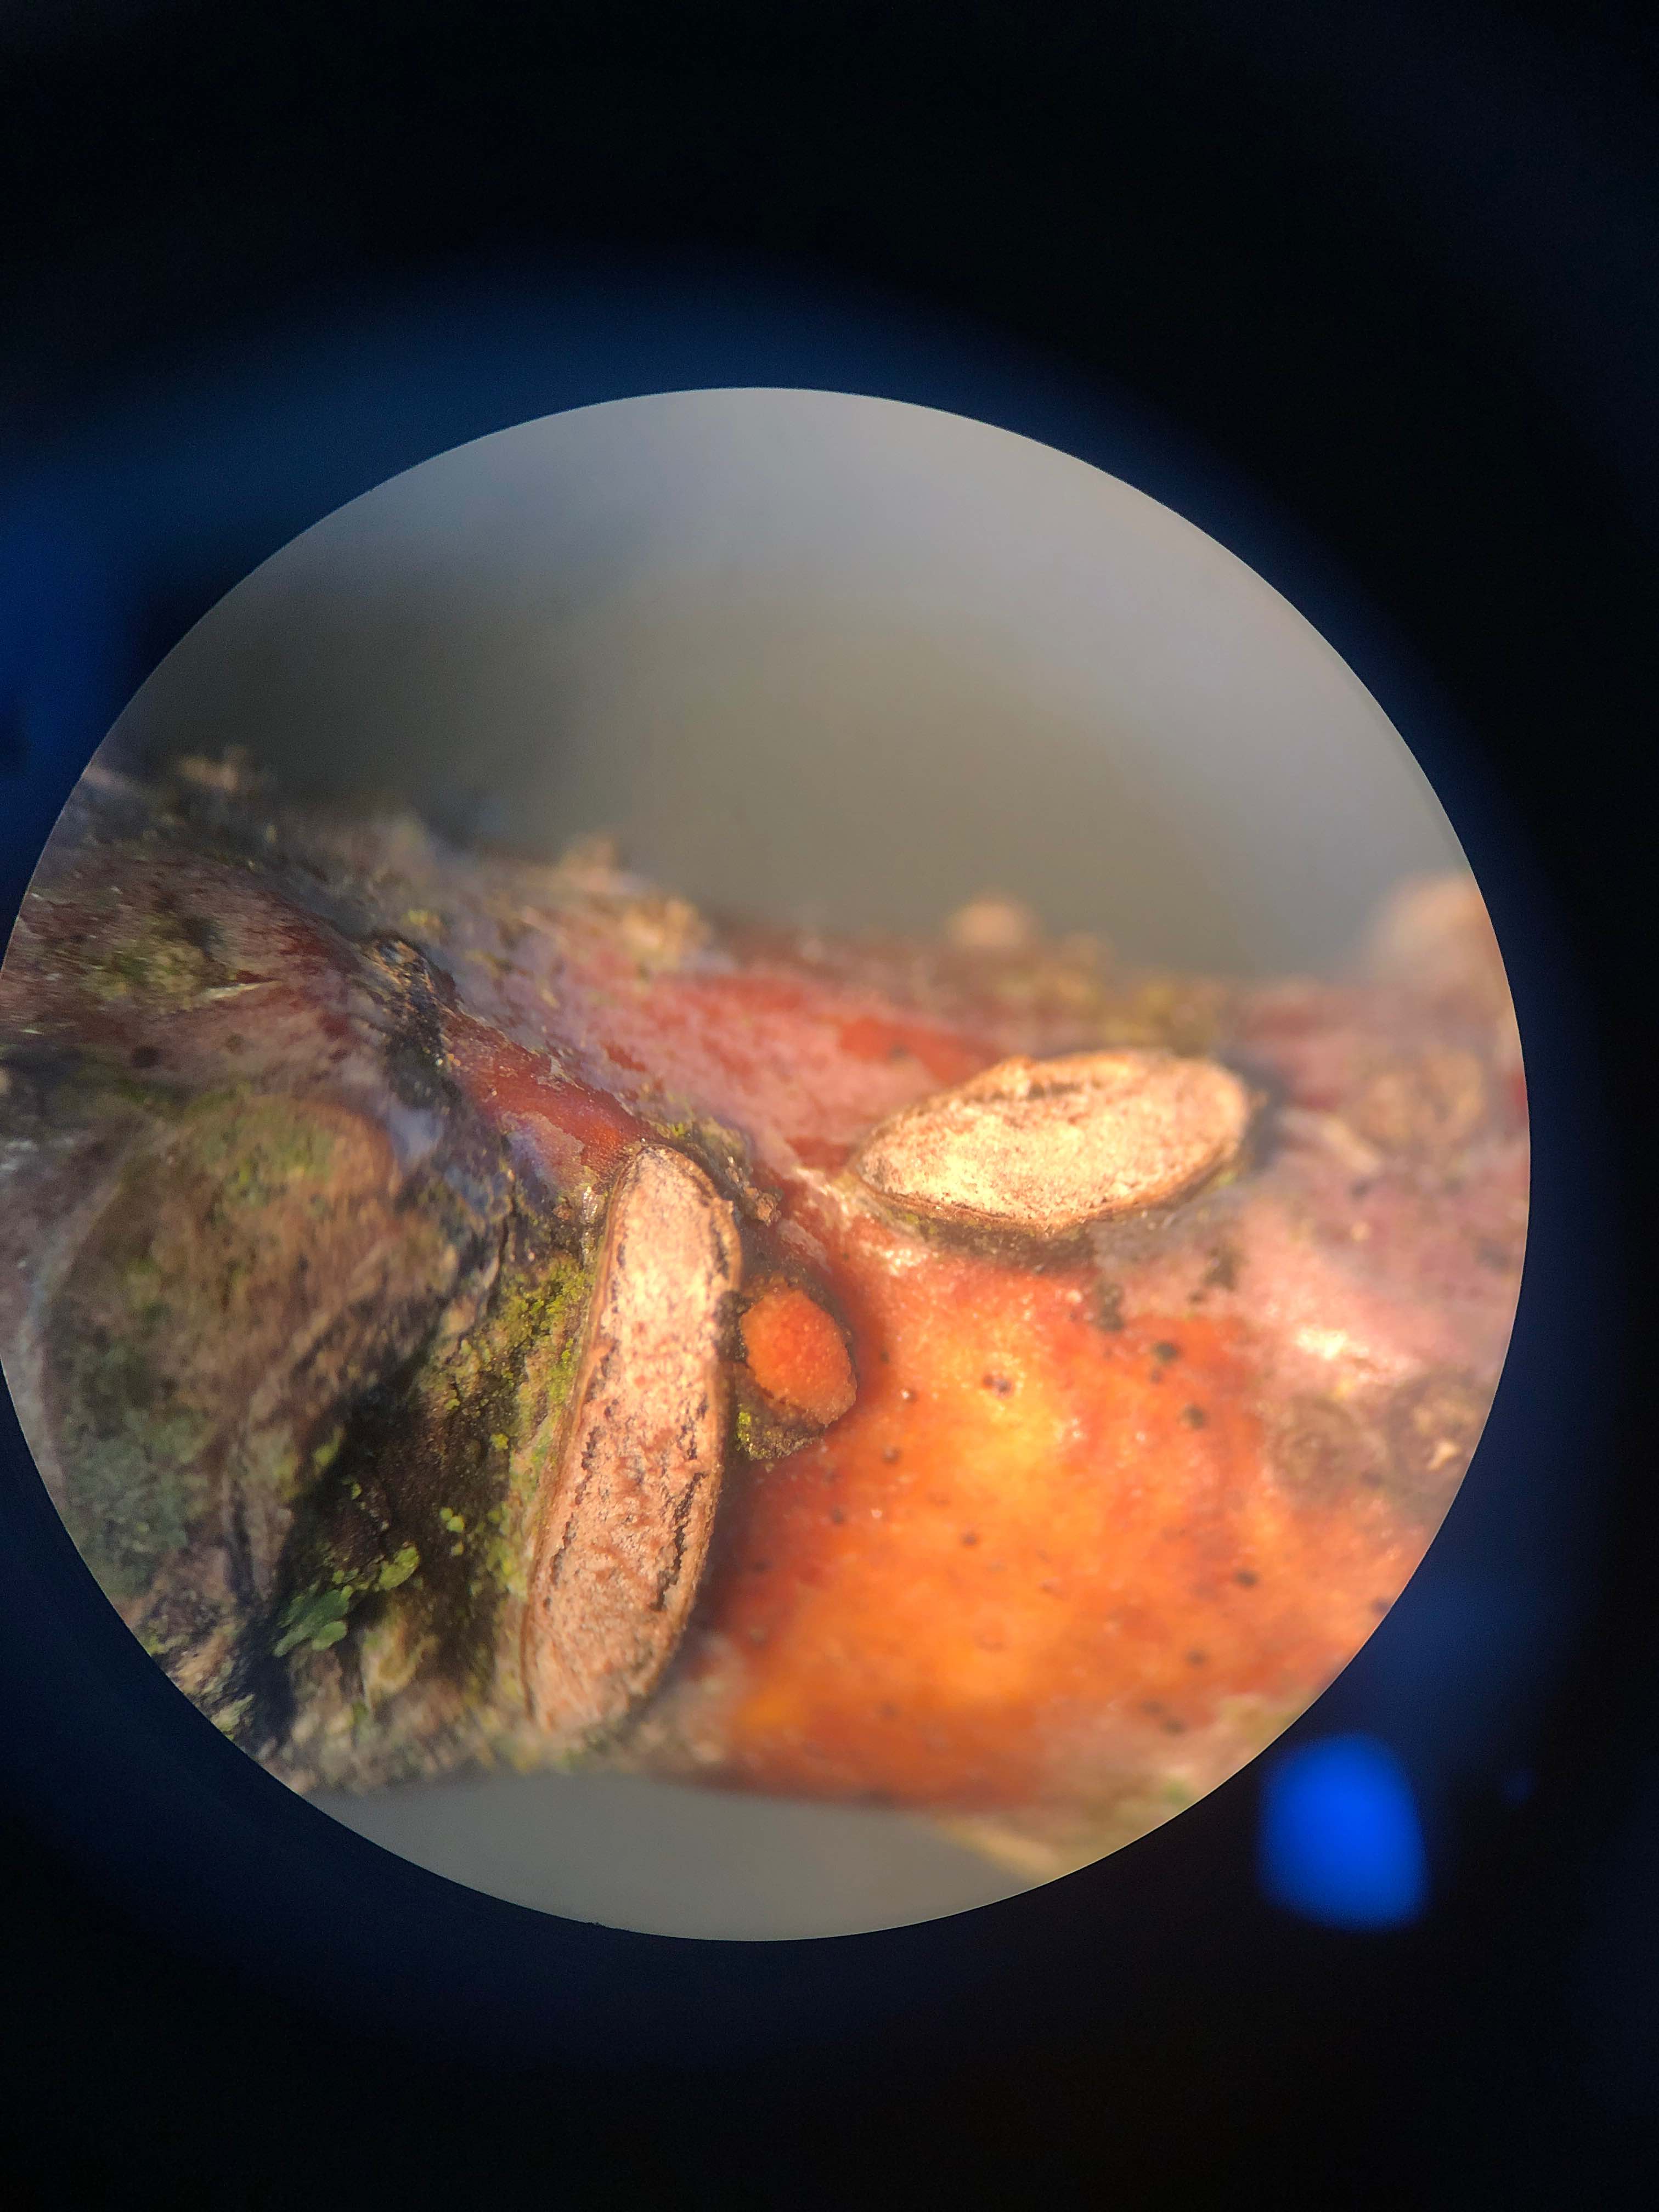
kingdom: Fungi
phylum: Ascomycota
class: Leotiomycetes
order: Rhytismatales
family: Rhytismataceae
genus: Colpoma
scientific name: Colpoma quercinum
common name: ege-sprækkeskive
